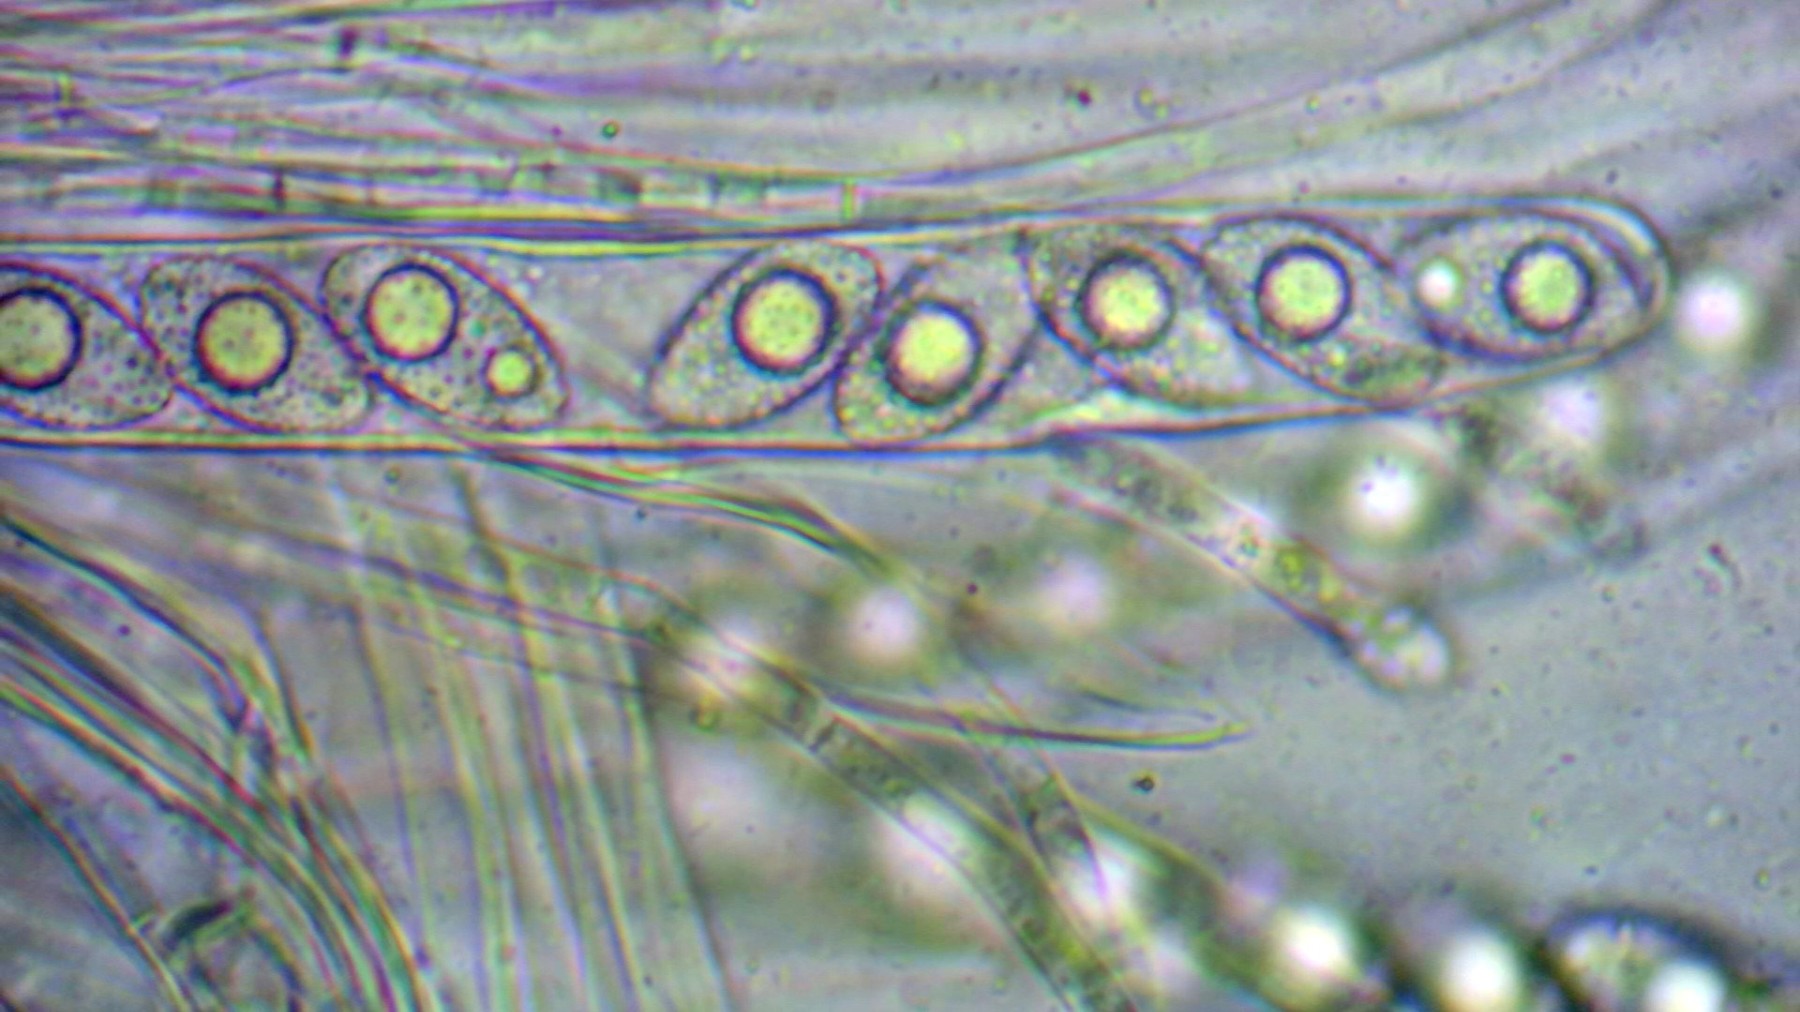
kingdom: Fungi
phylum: Ascomycota
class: Pezizomycetes
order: Pezizales
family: Pyronemataceae
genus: Octospora
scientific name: Octospora similis
